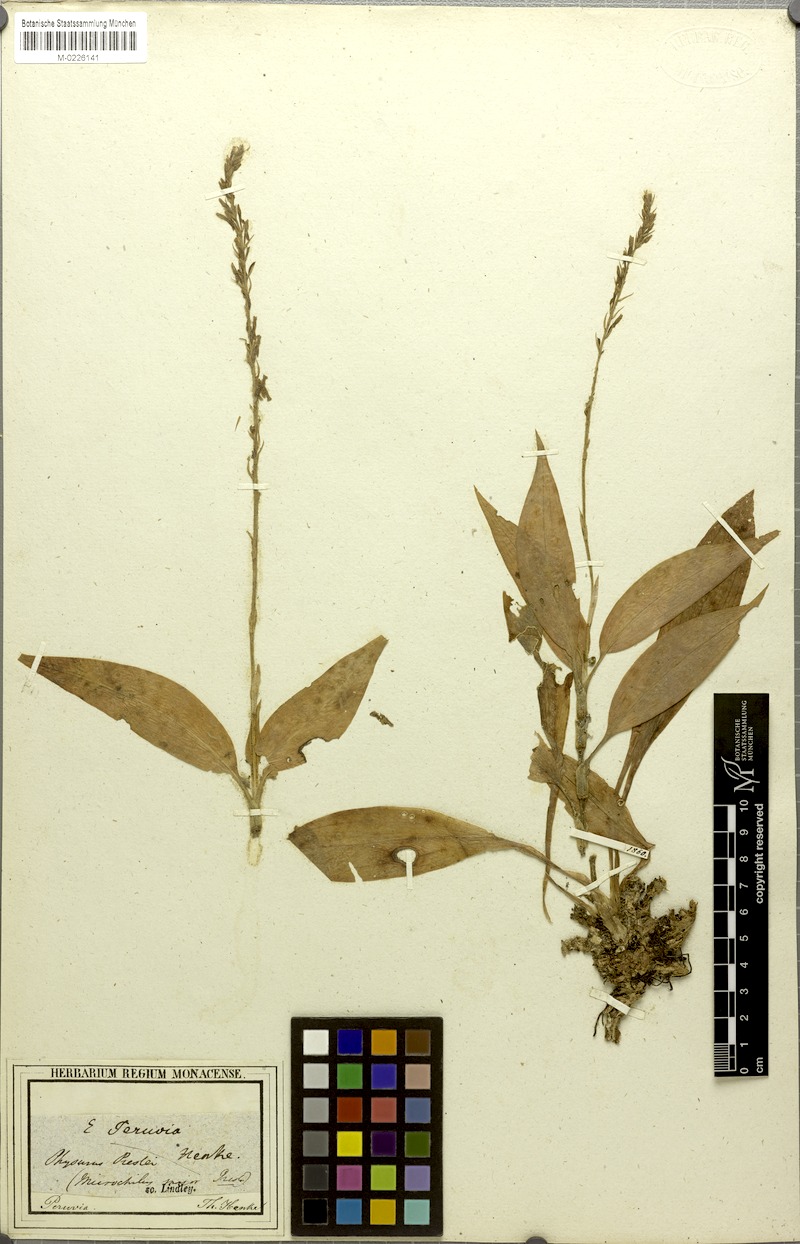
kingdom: Plantae
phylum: Tracheophyta
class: Liliopsida
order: Asparagales
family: Orchidaceae
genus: Microchilus
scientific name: Microchilus major
